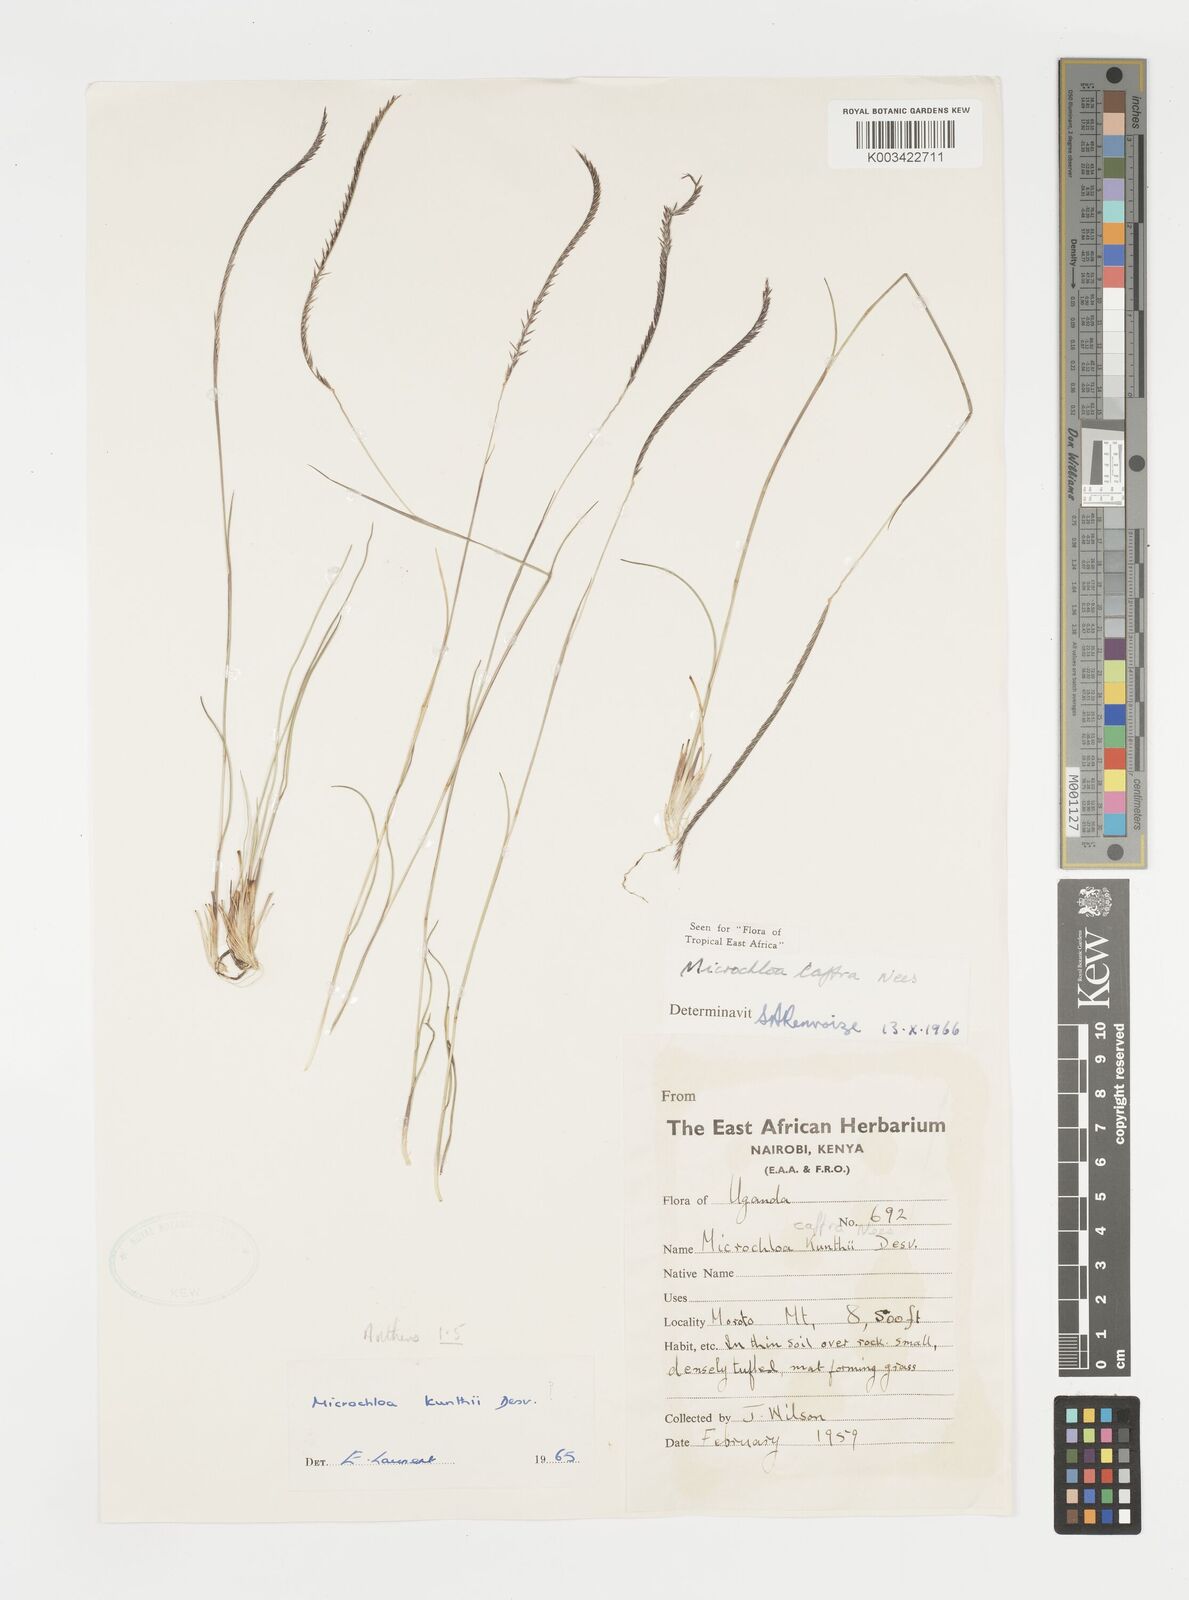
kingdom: Plantae
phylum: Tracheophyta
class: Liliopsida
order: Poales
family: Poaceae
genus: Microchloa
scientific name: Microchloa caffra
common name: Pincushion grass
